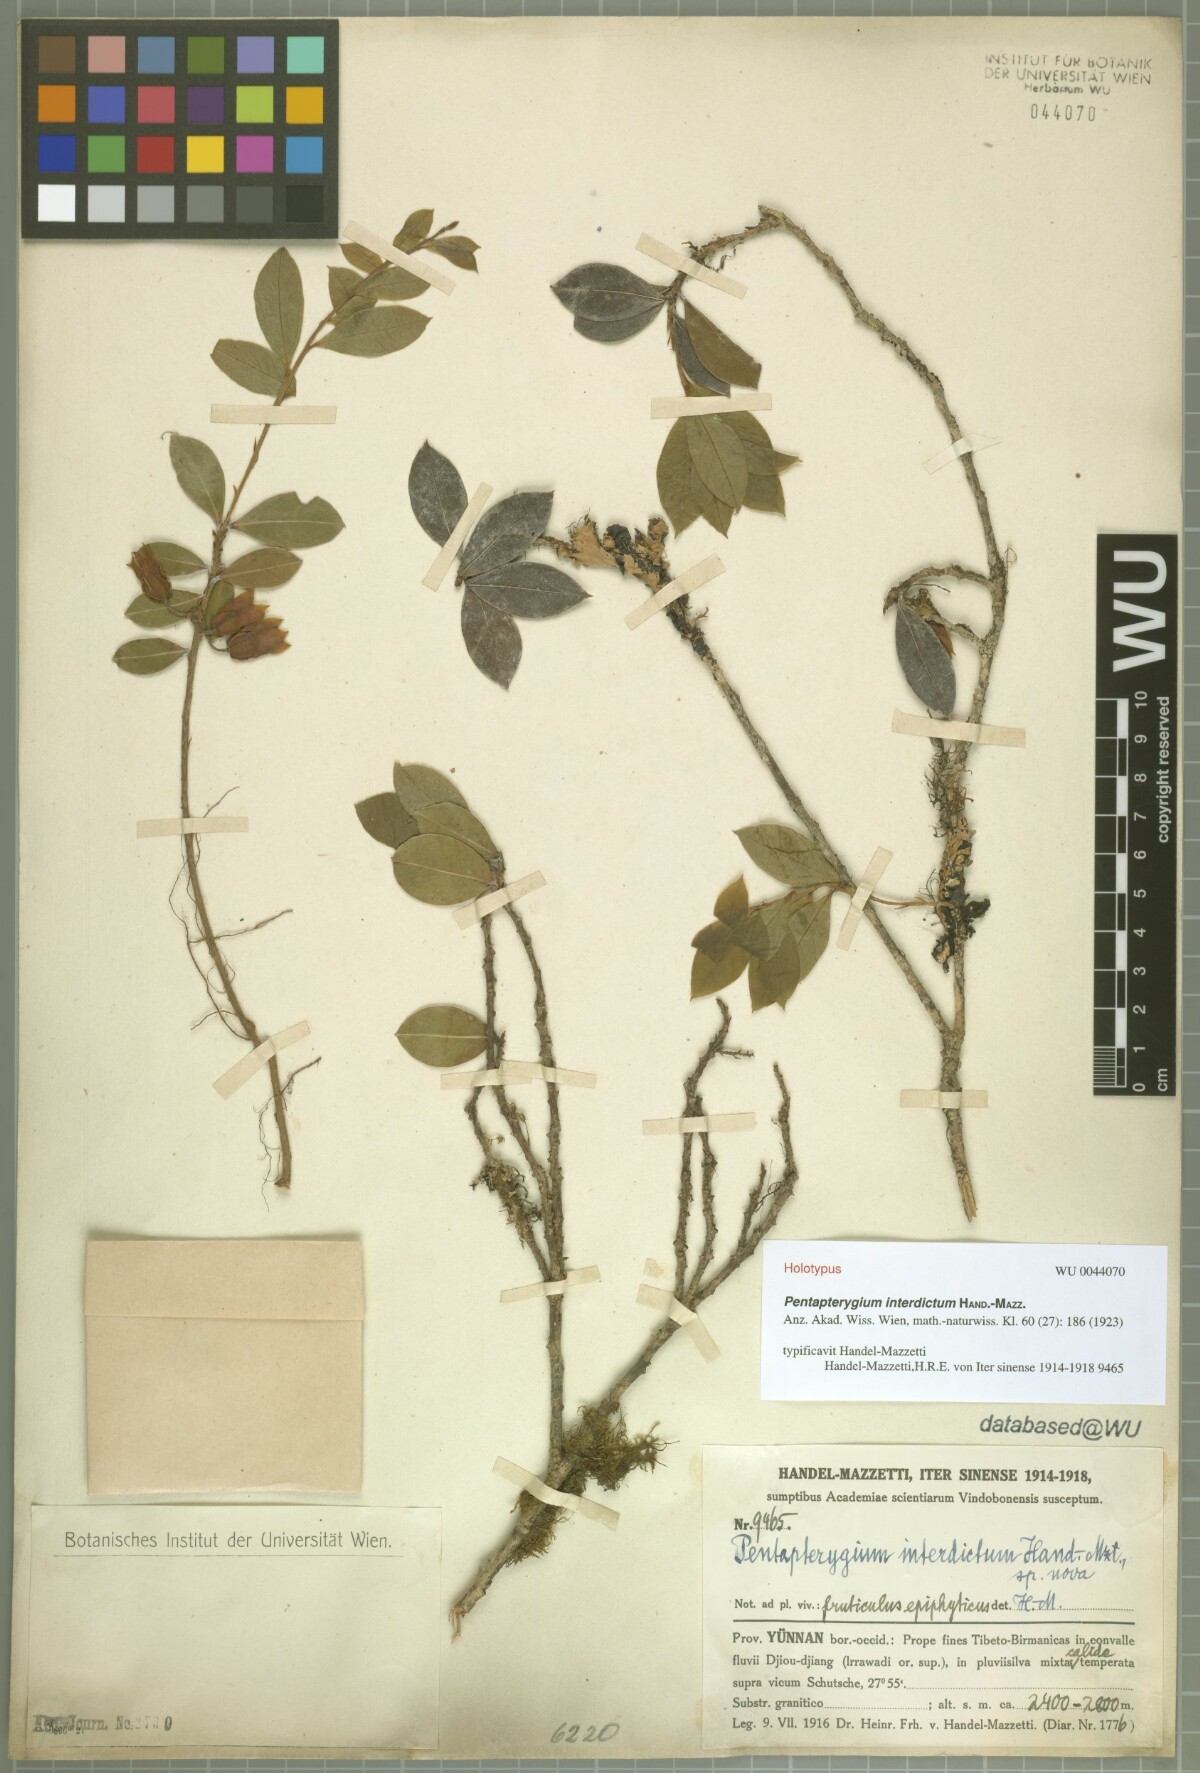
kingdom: Plantae
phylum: Tracheophyta
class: Magnoliopsida
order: Ericales
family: Ericaceae
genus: Agapetes
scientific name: Agapetes interdicta
